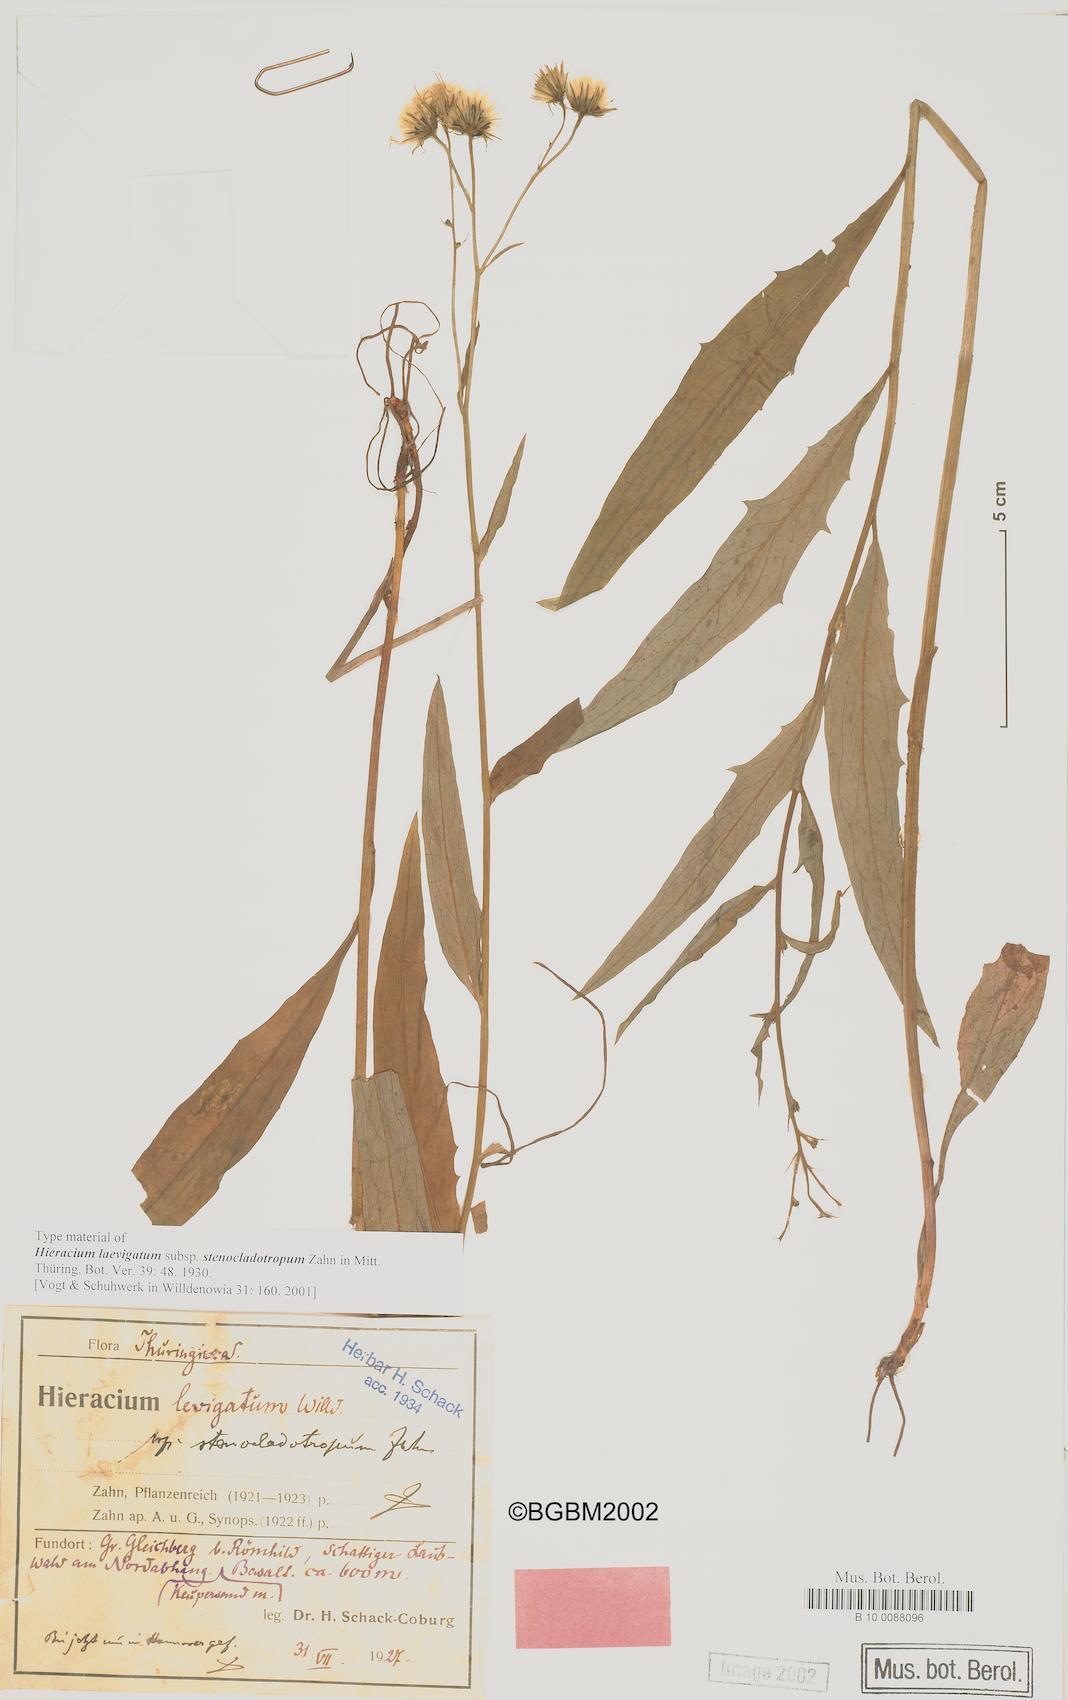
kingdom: Plantae
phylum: Tracheophyta
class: Magnoliopsida
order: Asterales
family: Asteraceae
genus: Hieracium
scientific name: Hieracium laevigatum
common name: Smooth hawkweed
